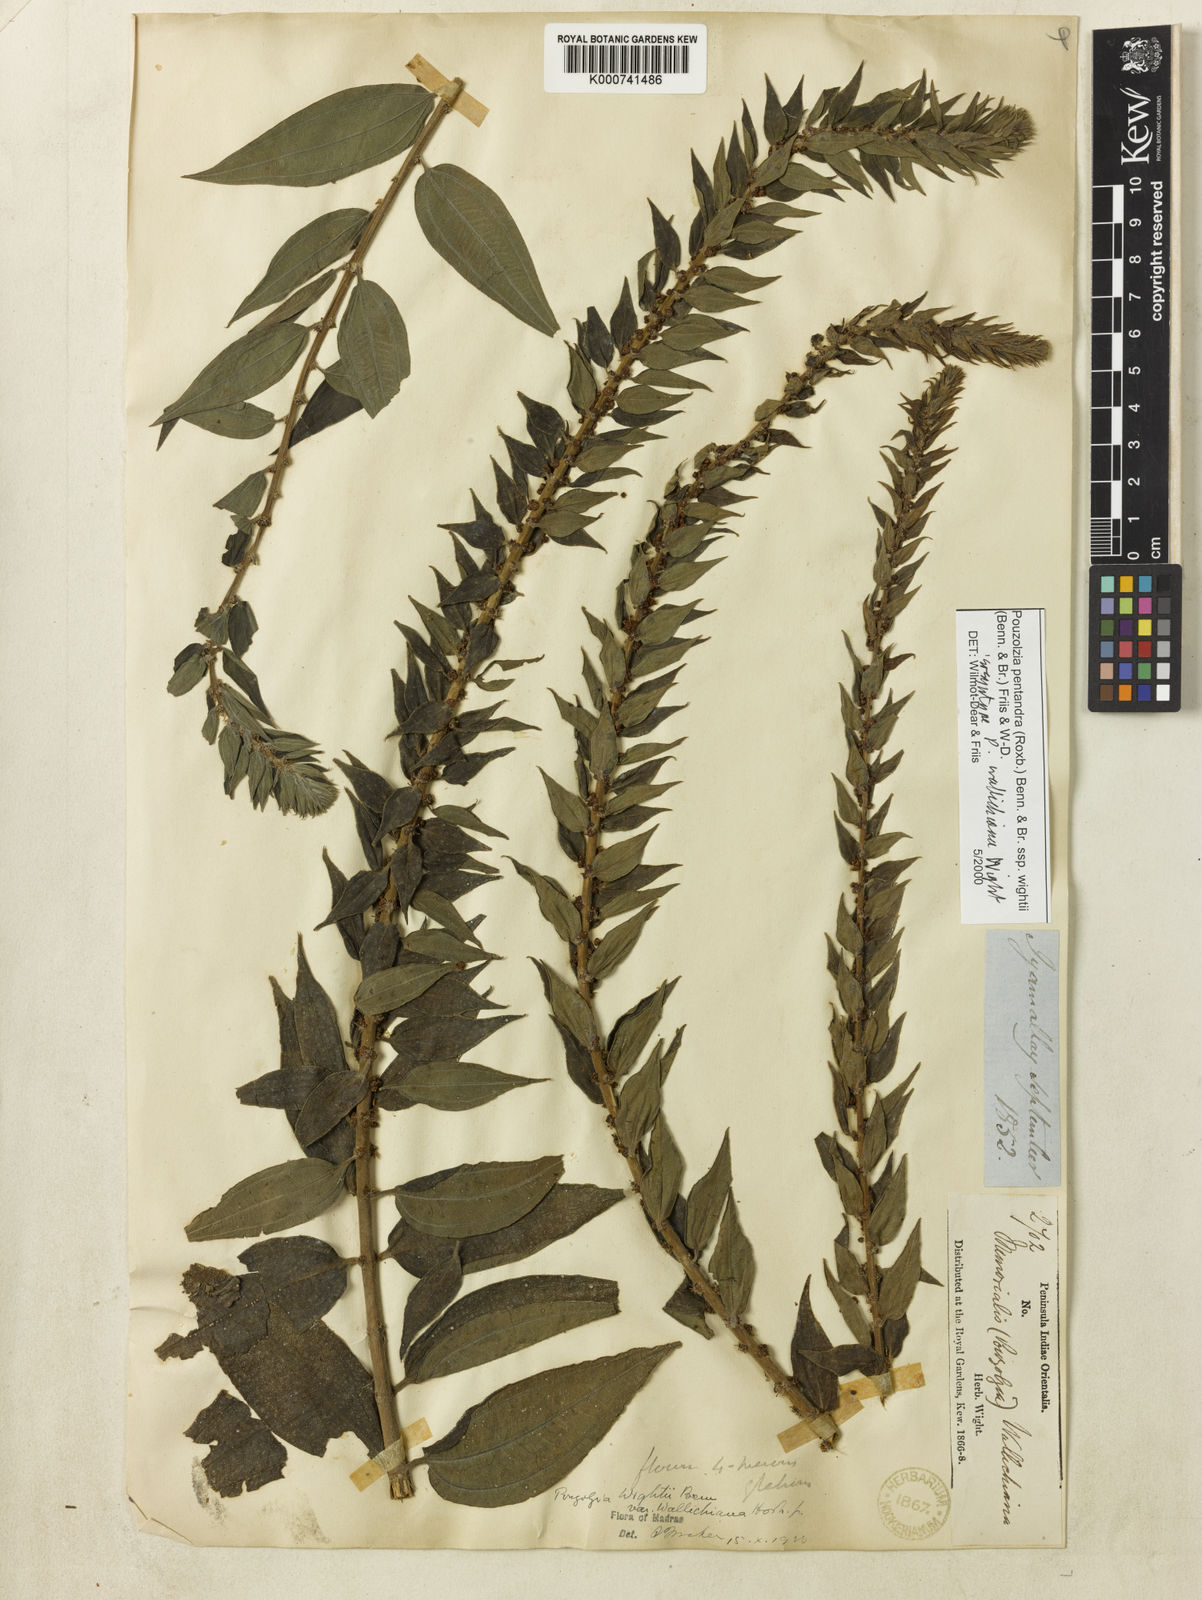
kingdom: Plantae
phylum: Tracheophyta
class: Magnoliopsida
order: Rosales
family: Urticaceae
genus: Gonostegia
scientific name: Gonostegia pentandra
